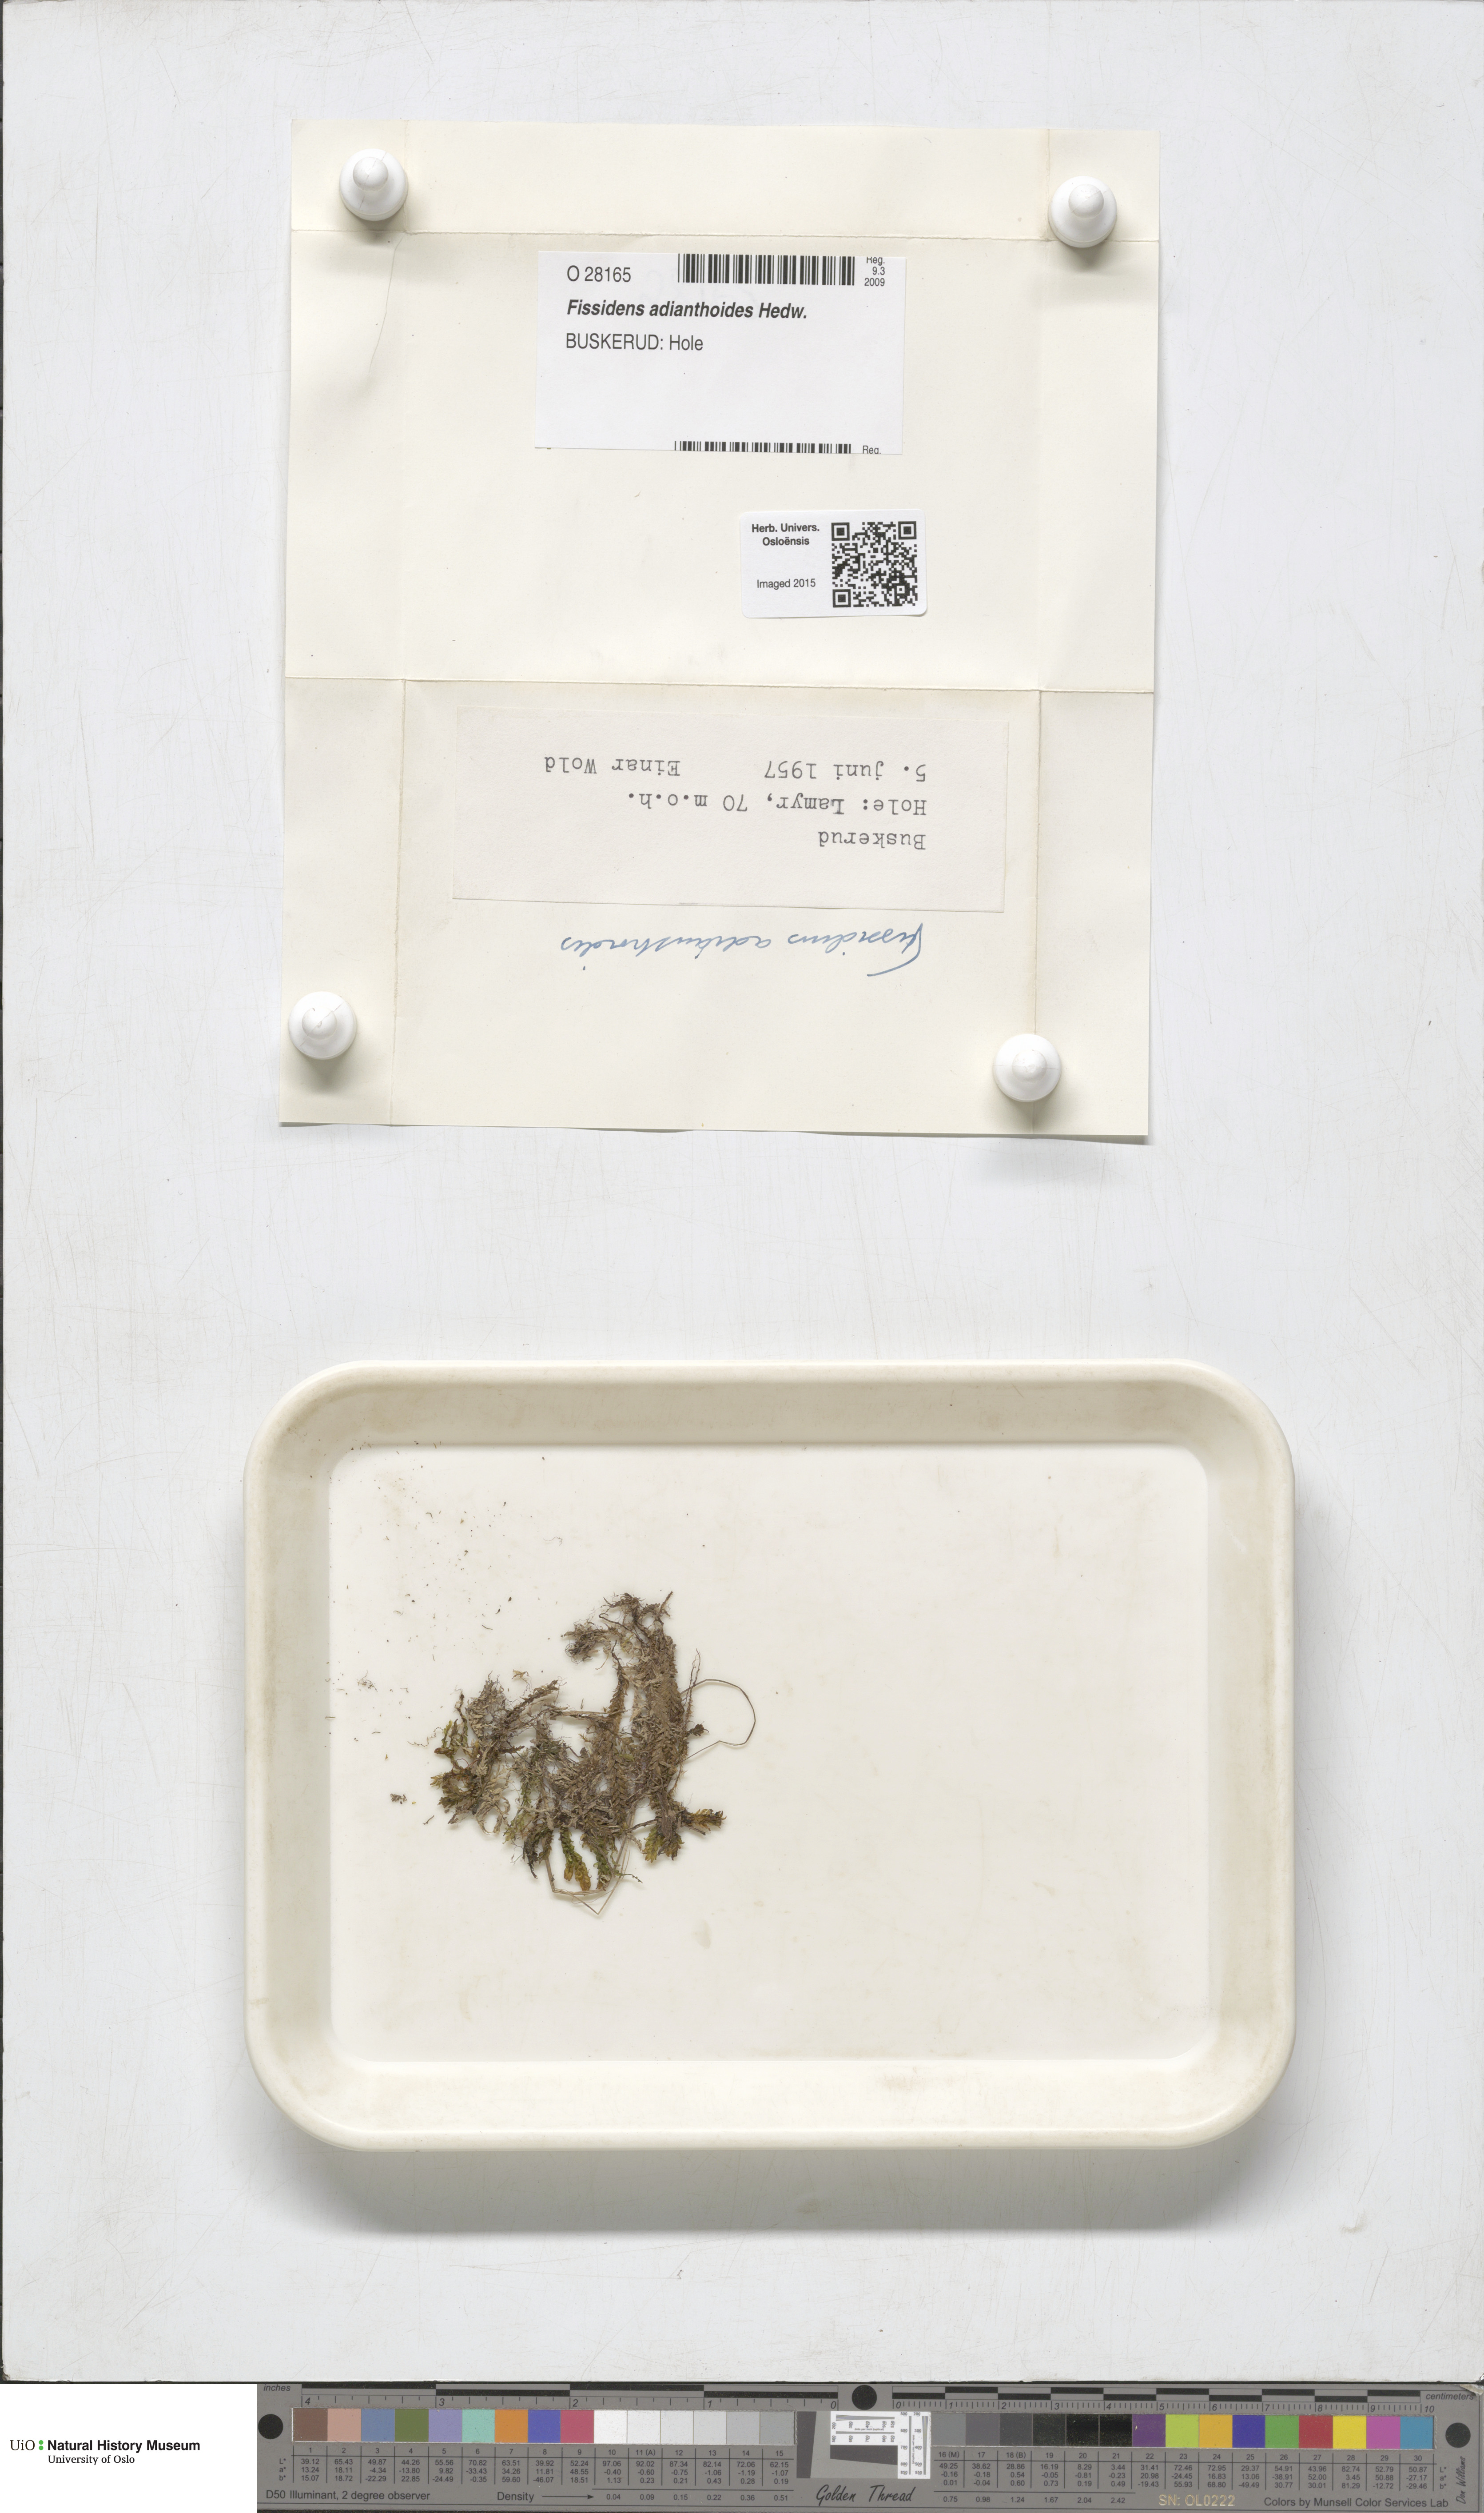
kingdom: Plantae
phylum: Bryophyta
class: Bryopsida
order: Dicranales
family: Fissidentaceae
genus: Fissidens
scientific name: Fissidens adianthoides
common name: Maidenhair pocket moss
